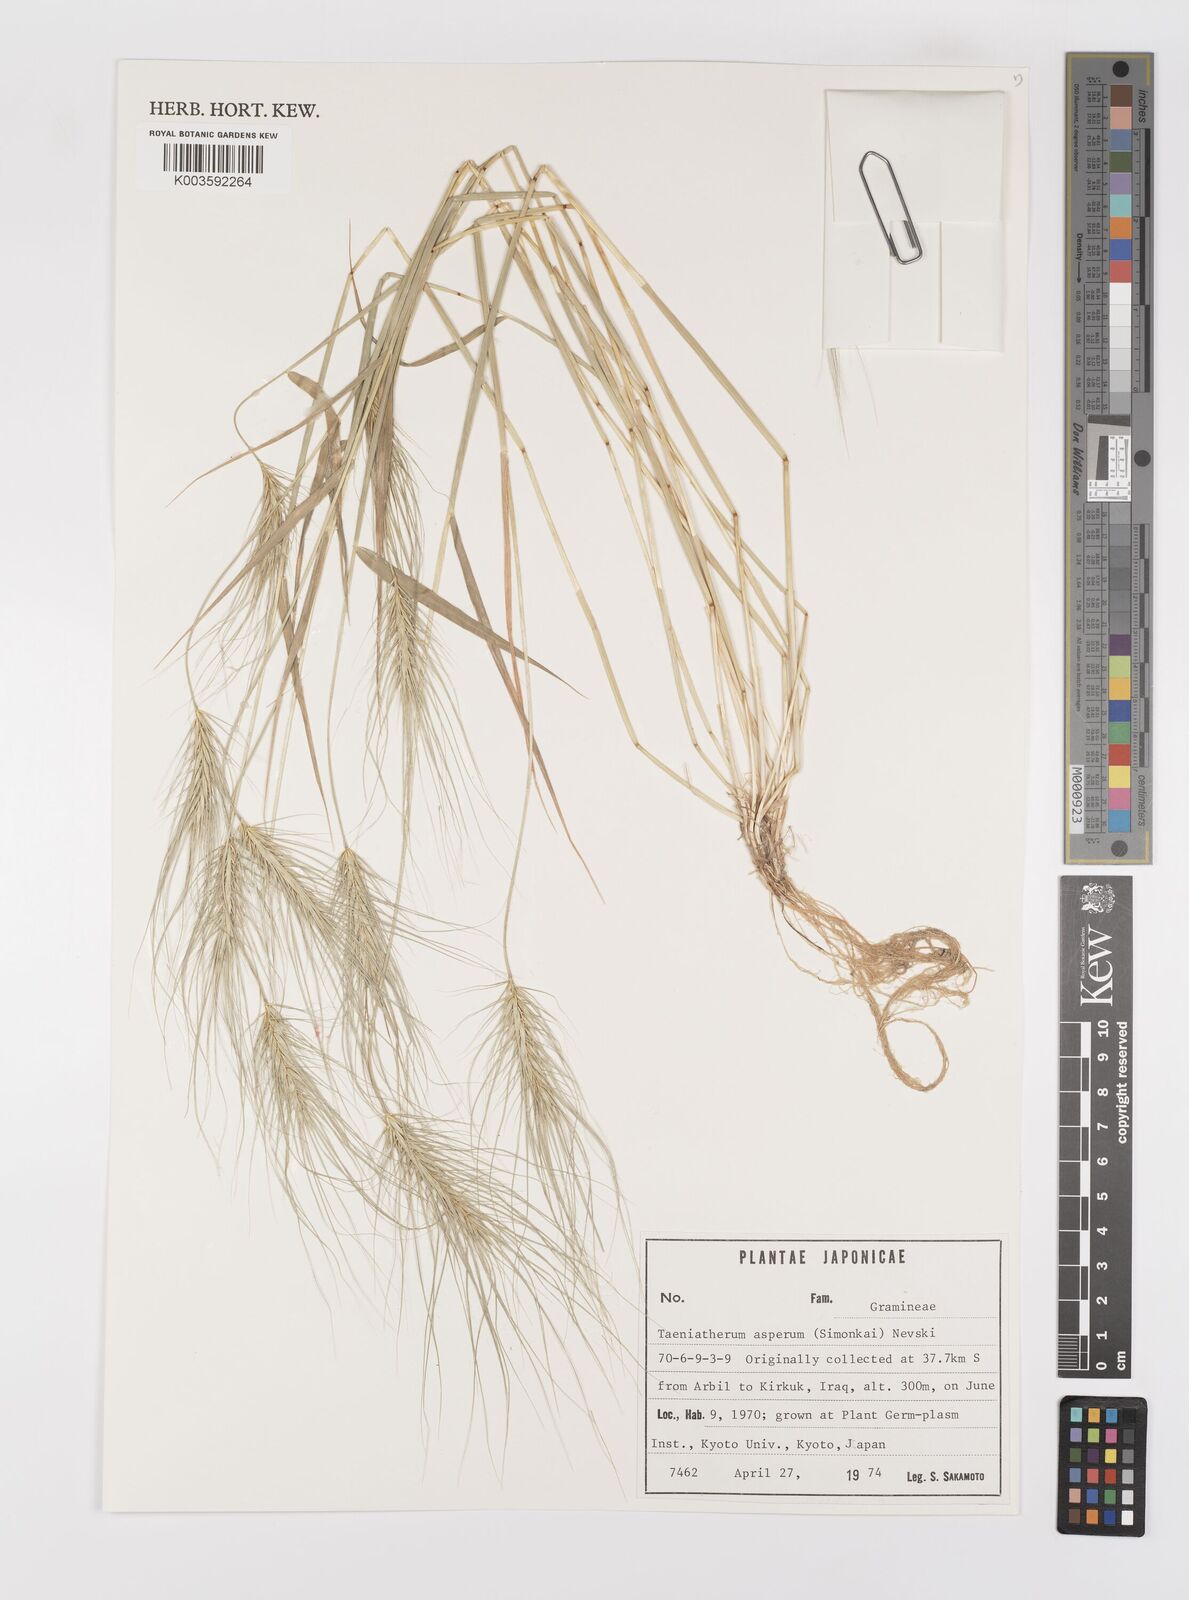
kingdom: Plantae
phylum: Tracheophyta
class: Liliopsida
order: Poales
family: Poaceae
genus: Taeniatherum
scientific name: Taeniatherum caput-medusae
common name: Medusahead
